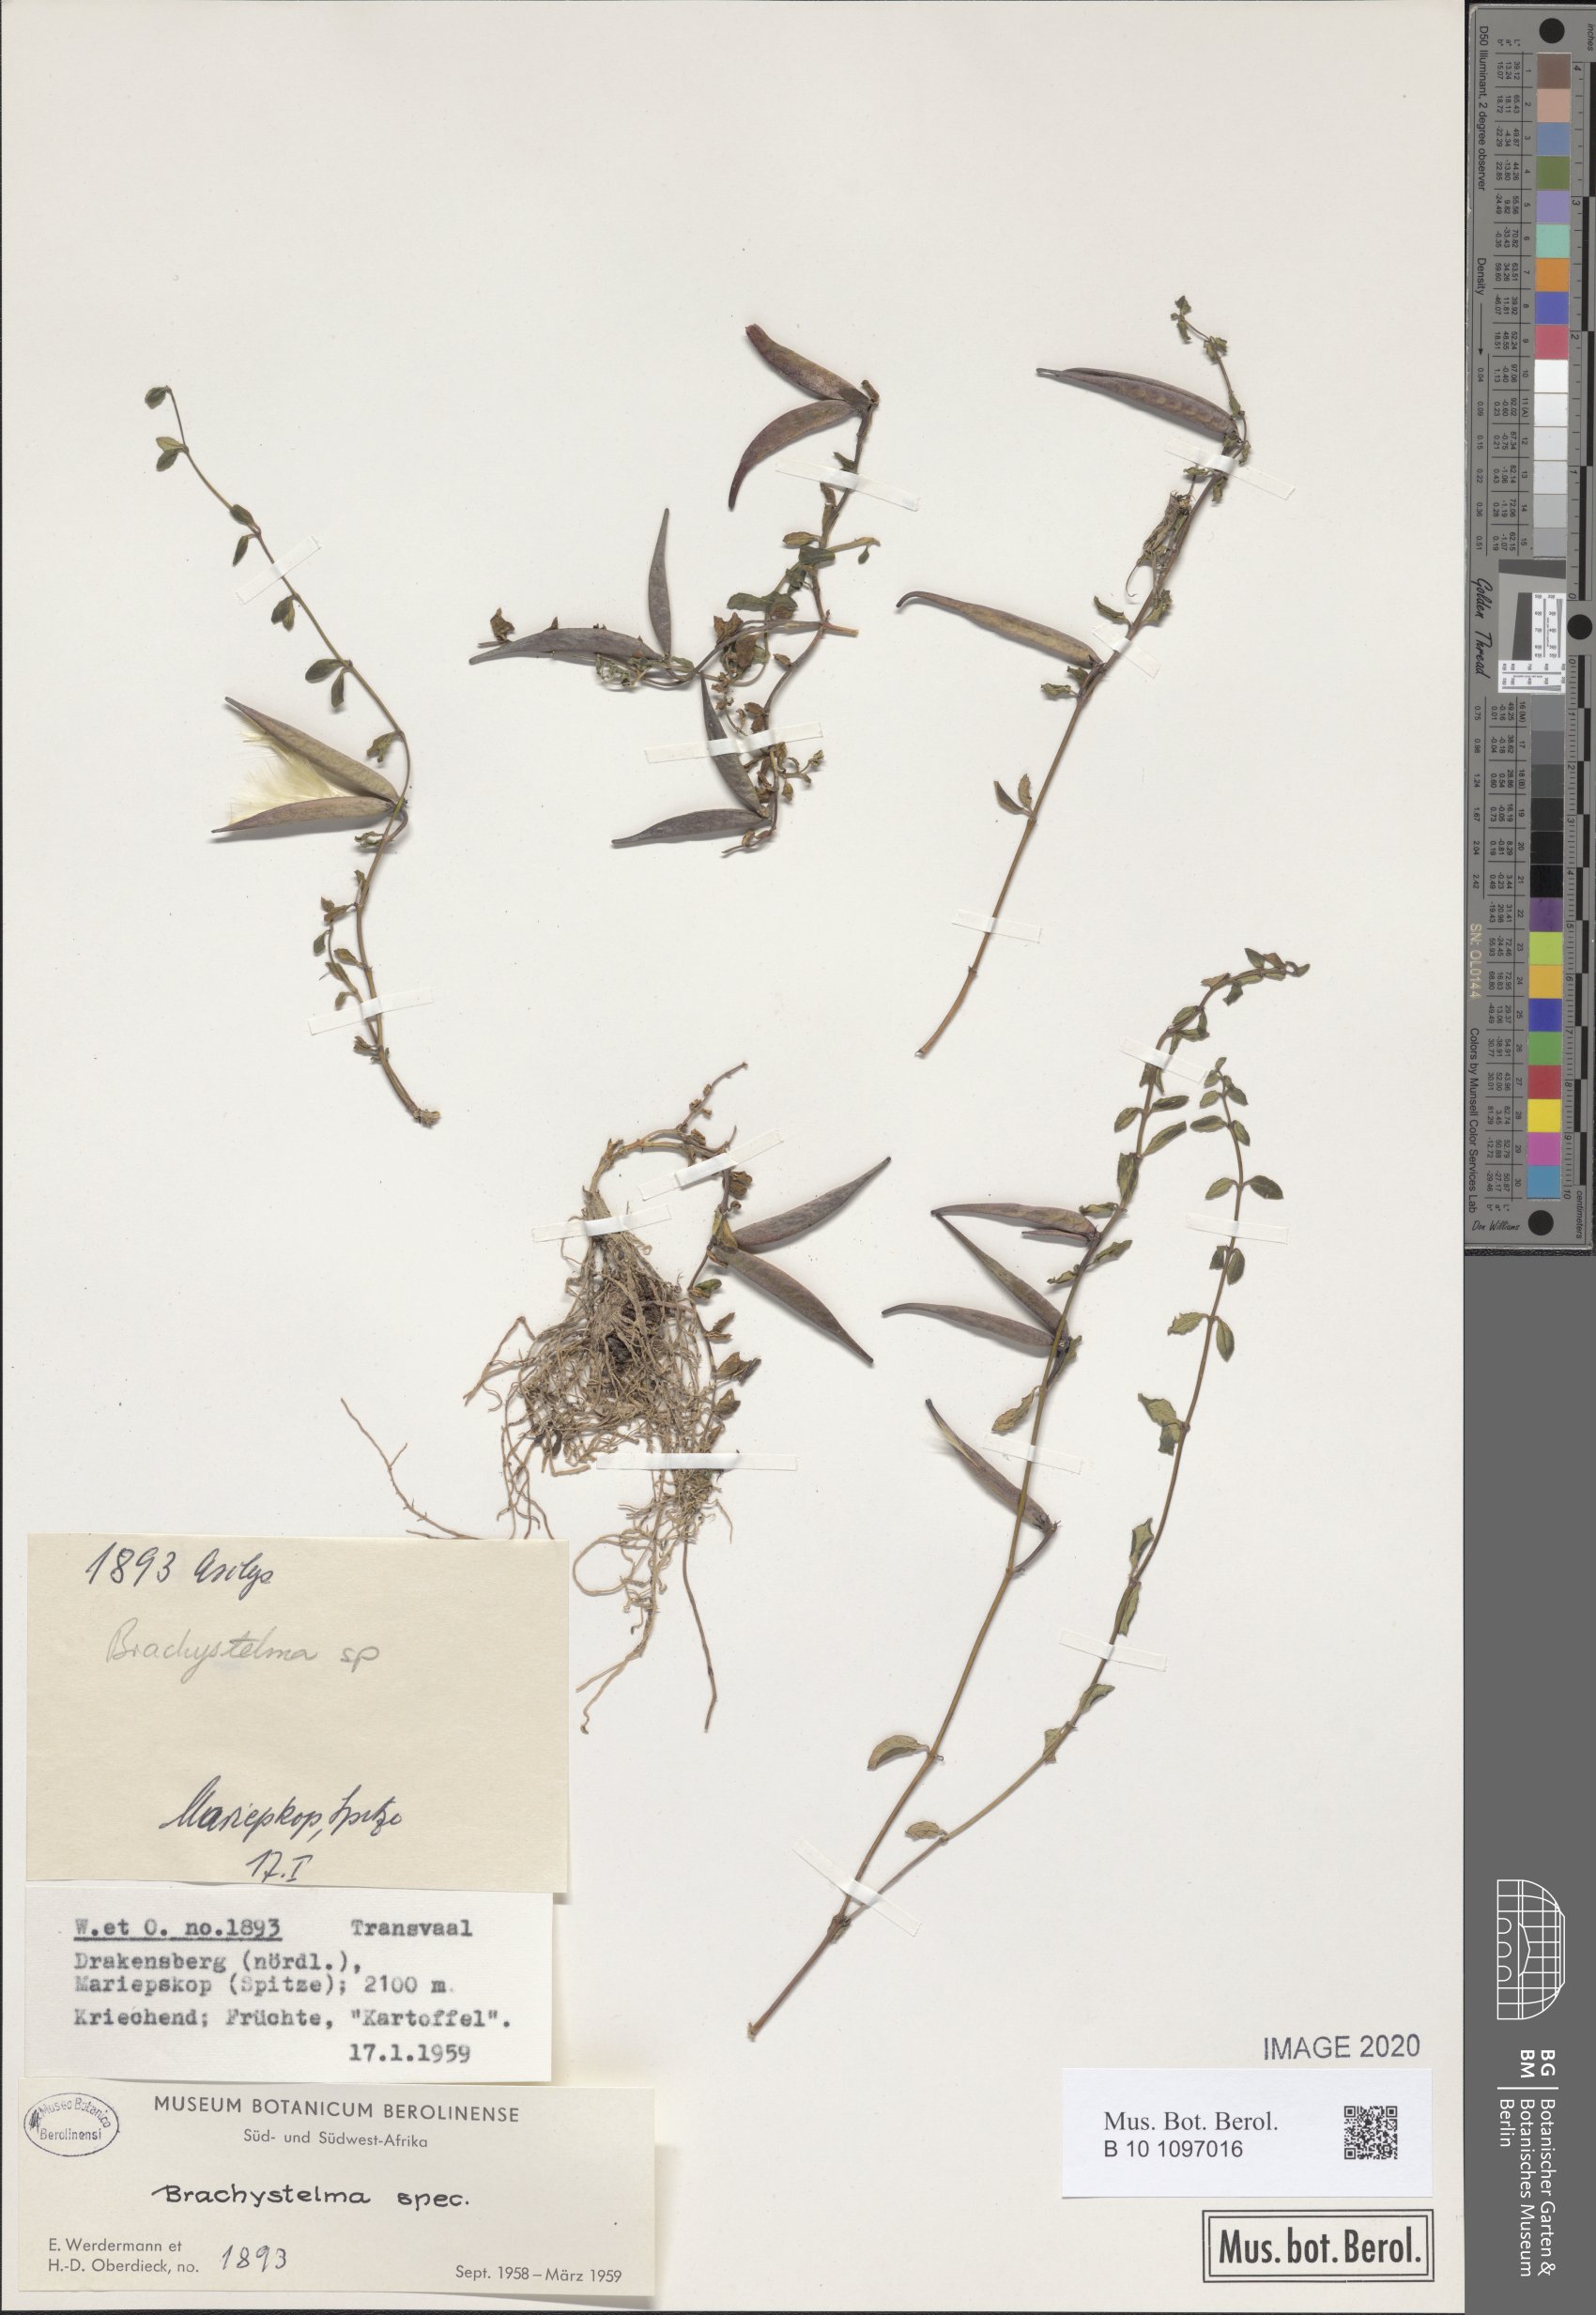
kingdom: Plantae
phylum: Tracheophyta
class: Magnoliopsida
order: Gentianales
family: Apocynaceae
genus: Ceropegia
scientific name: Ceropegia
